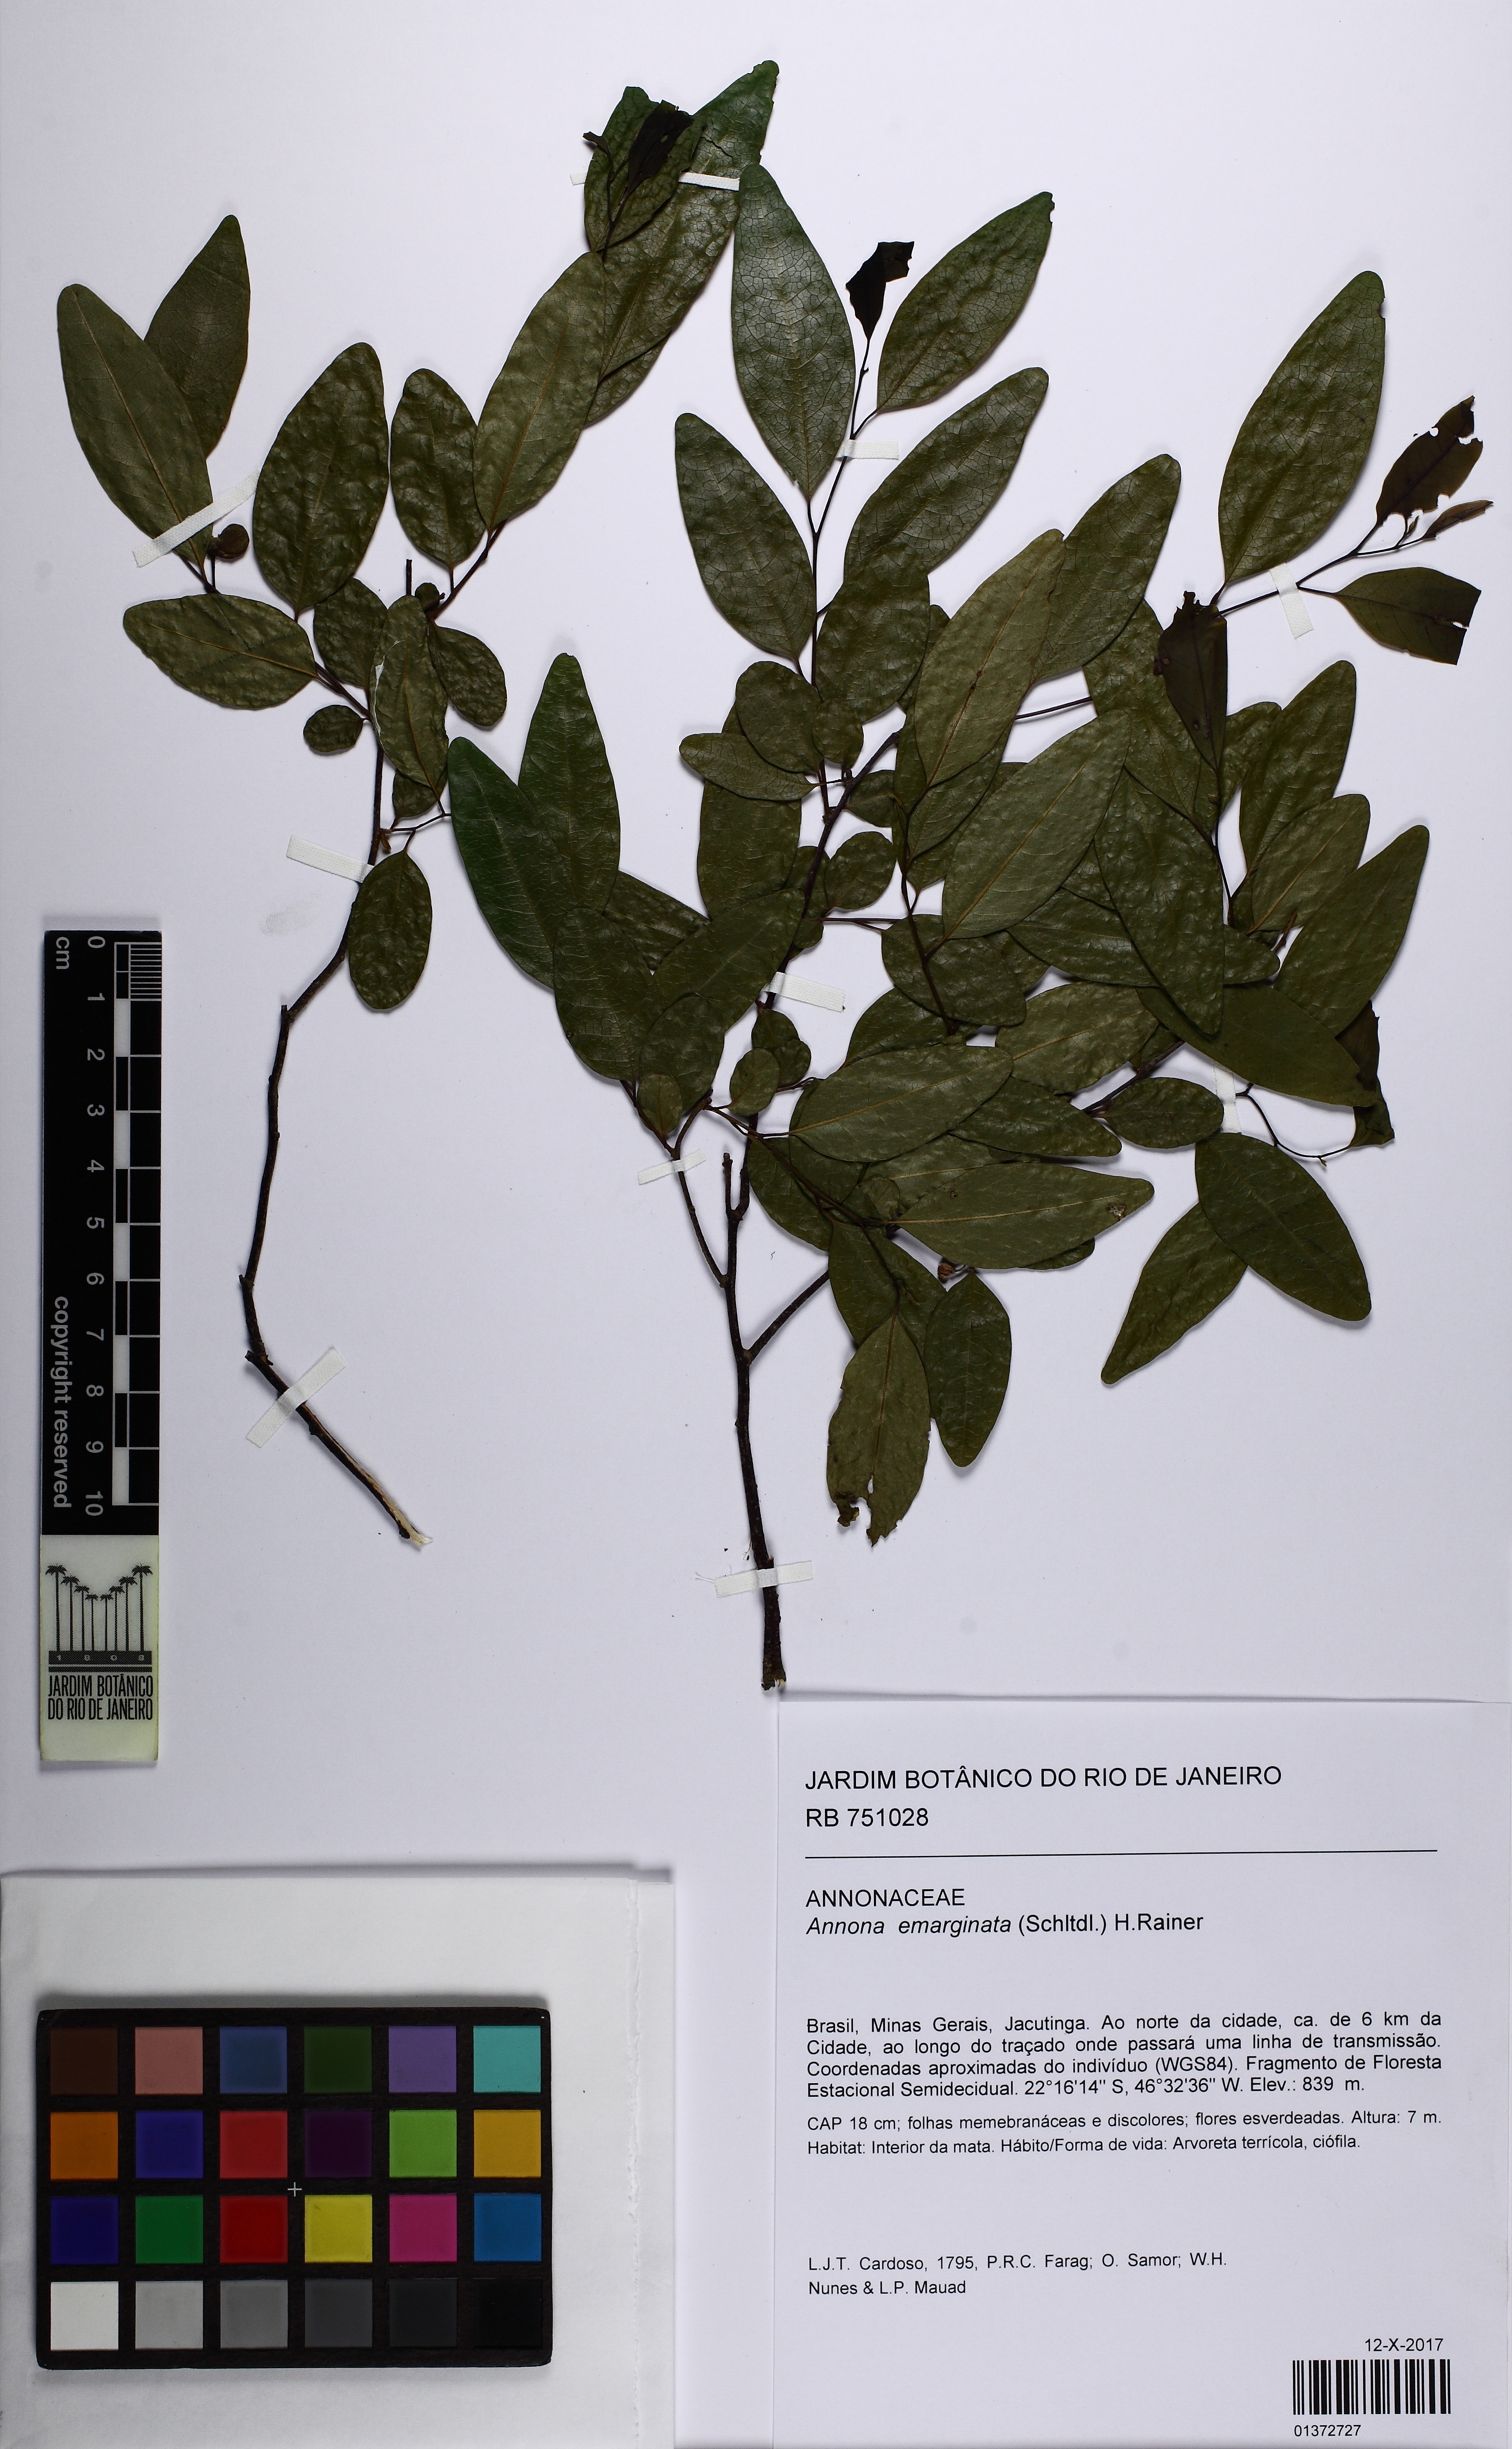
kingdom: Plantae
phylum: Tracheophyta
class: Magnoliopsida
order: Magnoliales
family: Annonaceae
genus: Annona
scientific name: Annona emarginata
